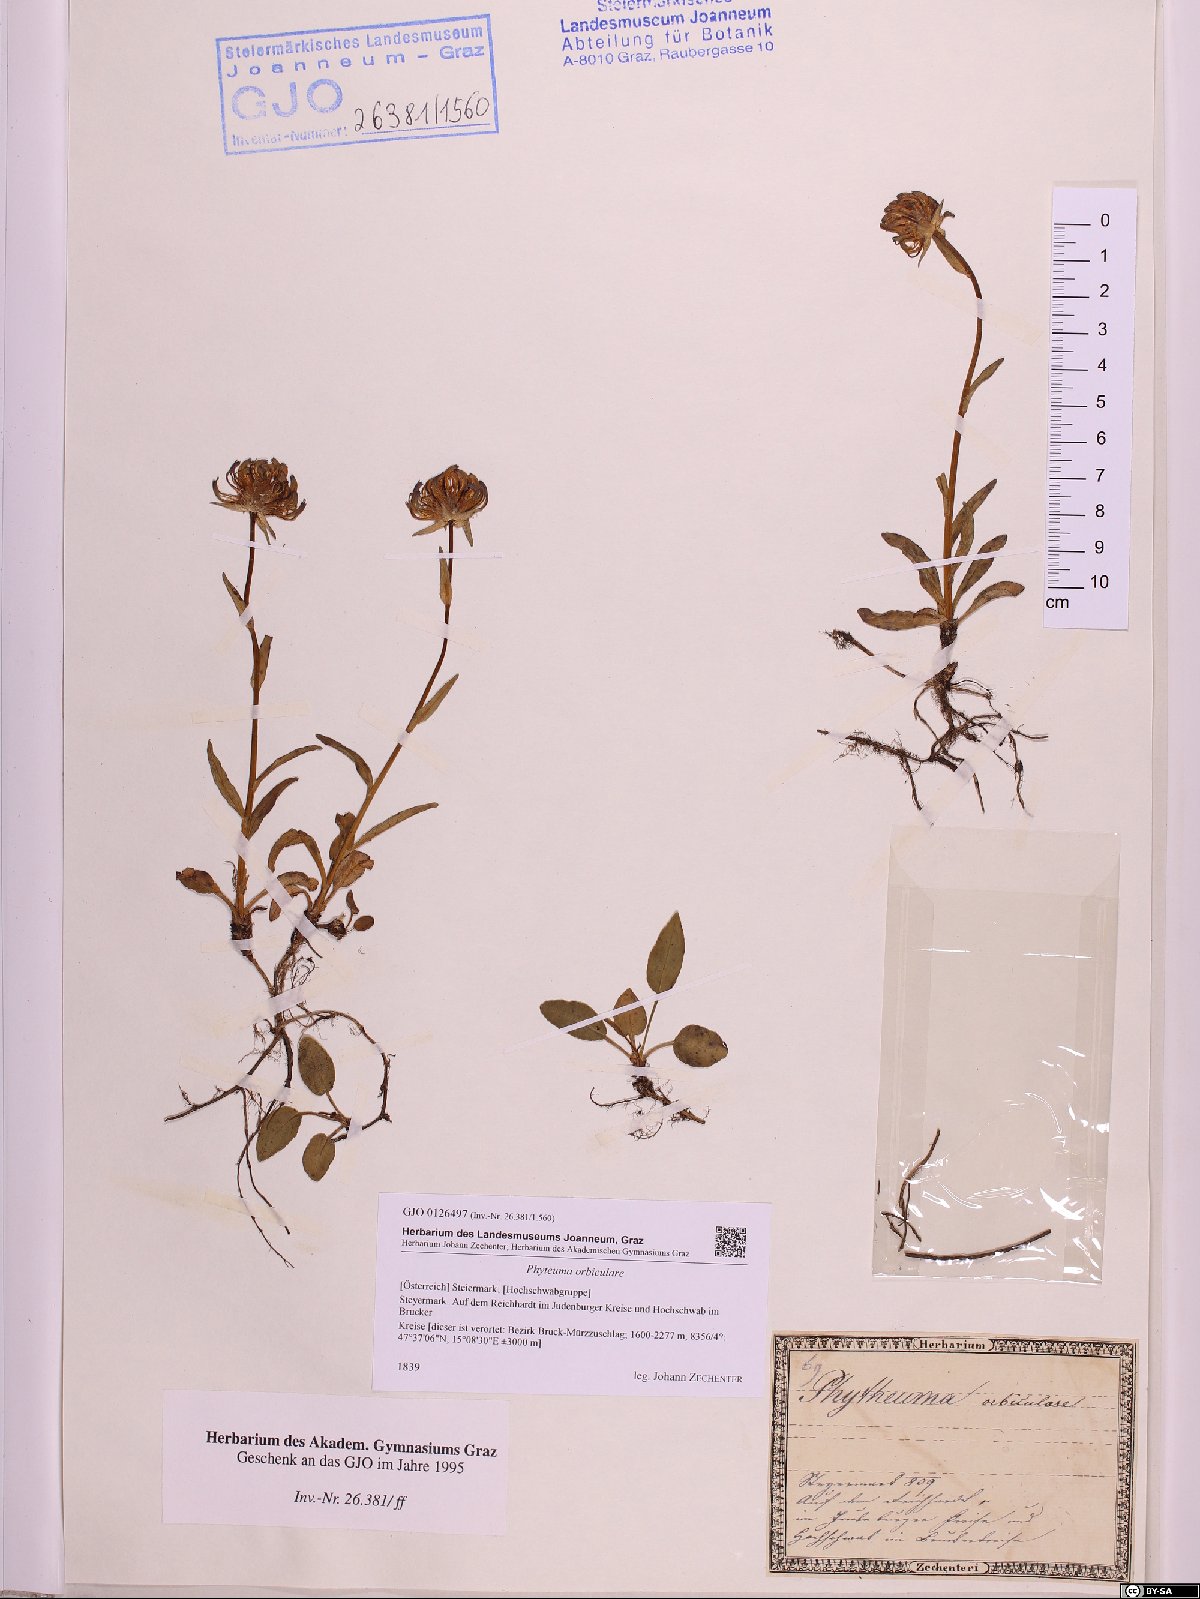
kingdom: Plantae
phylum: Tracheophyta
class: Magnoliopsida
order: Asterales
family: Campanulaceae
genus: Phyteuma
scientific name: Phyteuma orbiculare
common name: Round-headed rampion
